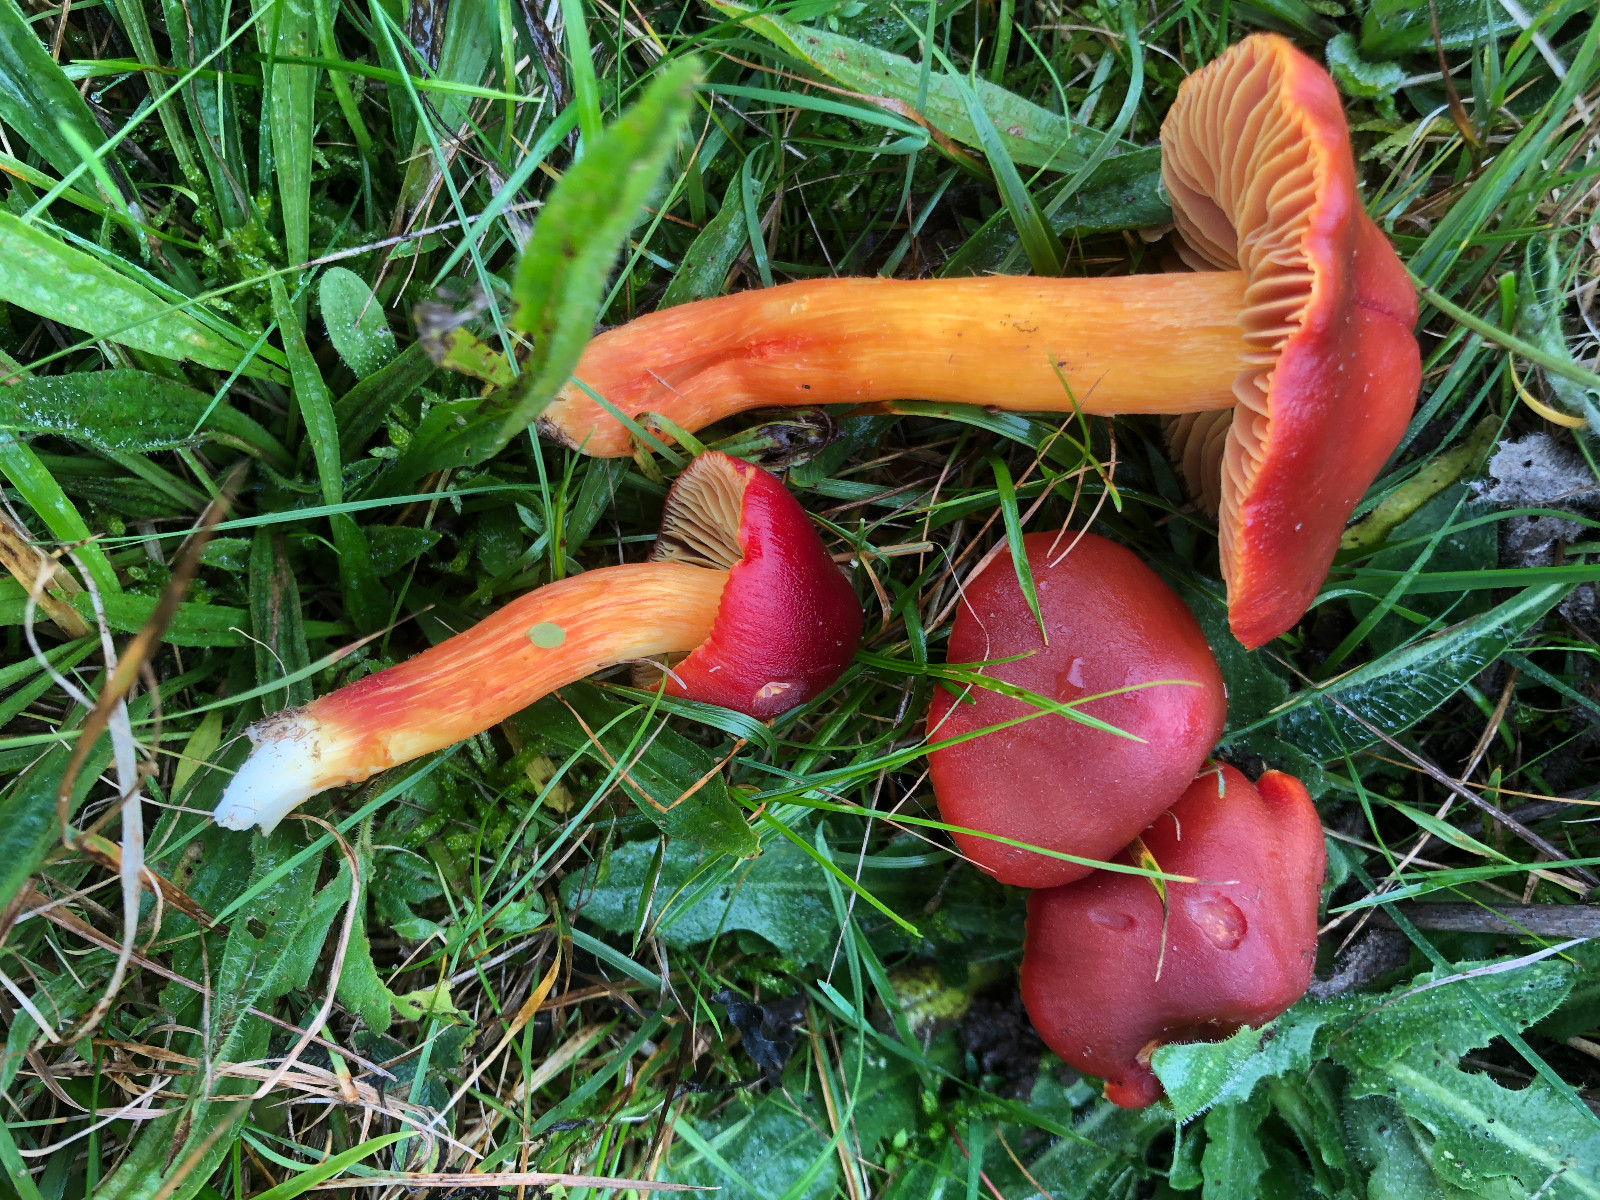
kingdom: Fungi
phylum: Basidiomycota
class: Agaricomycetes
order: Agaricales
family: Hygrophoraceae
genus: Hygrocybe
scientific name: Hygrocybe punicea
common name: skarlagen-vokshat
